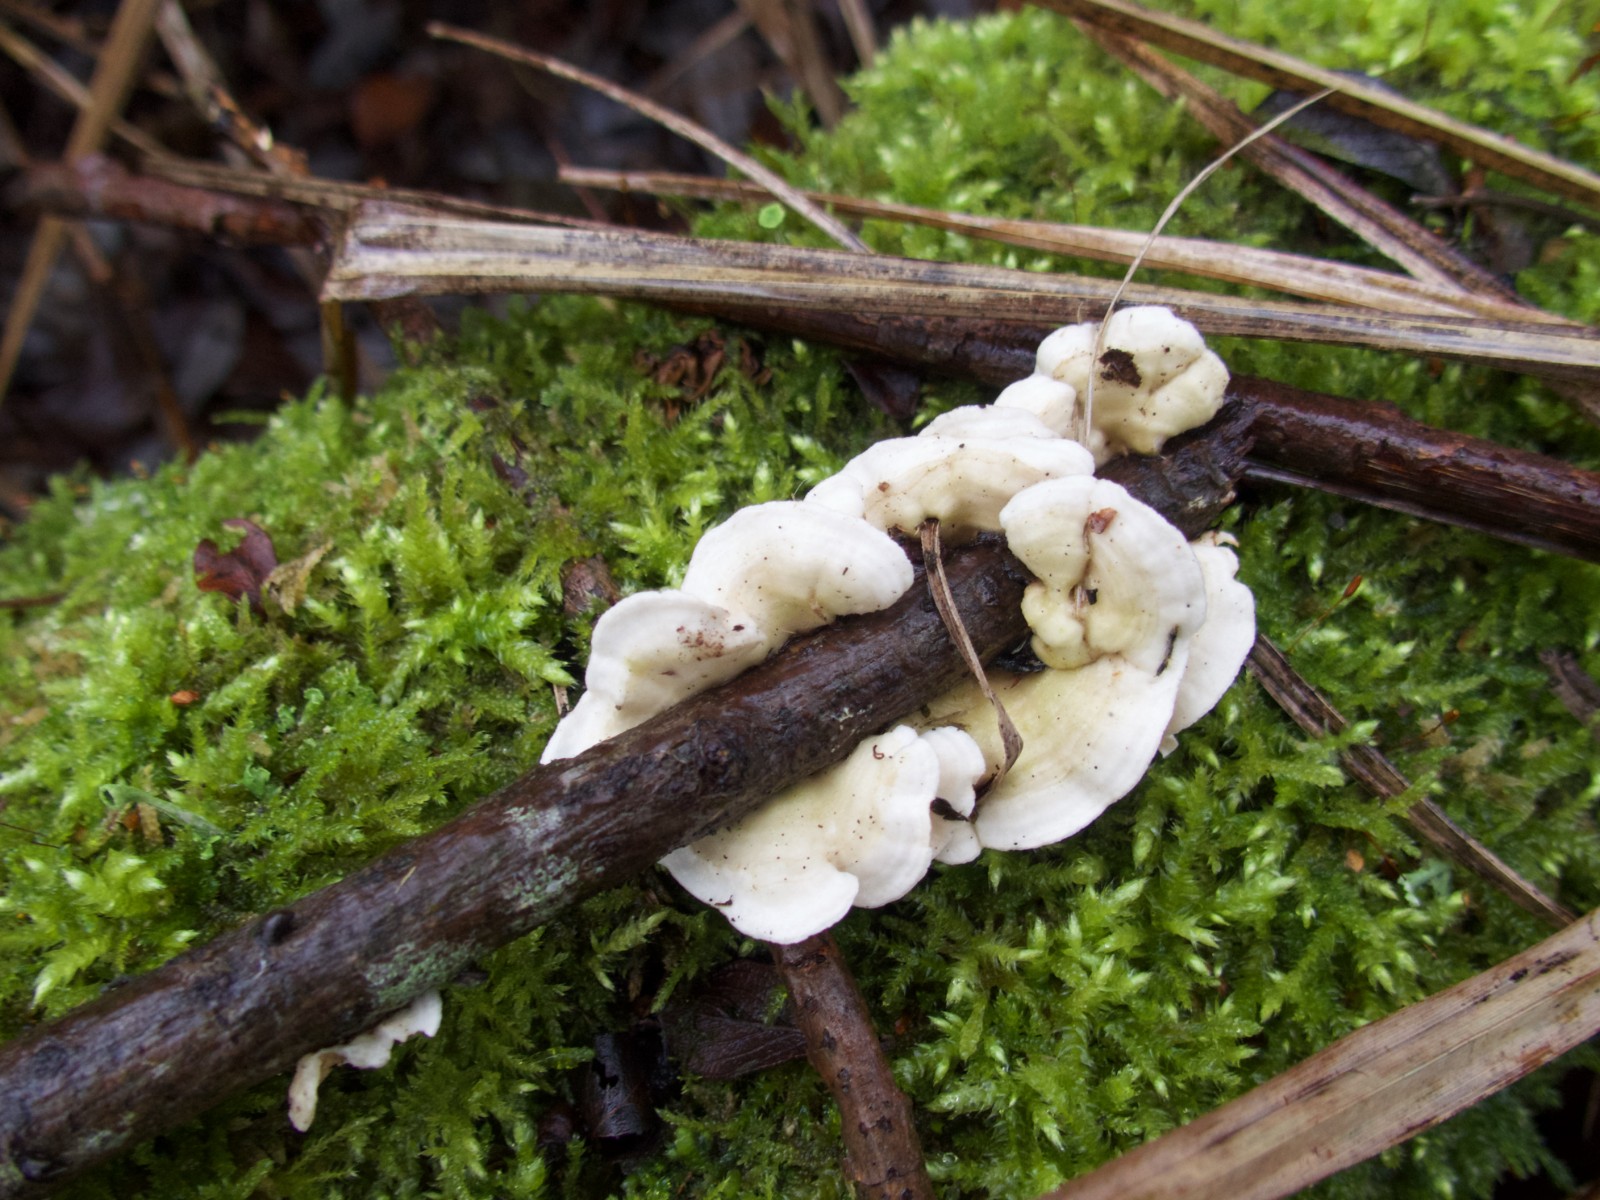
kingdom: Fungi
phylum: Basidiomycota
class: Agaricomycetes
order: Polyporales
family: Irpicaceae
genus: Byssomerulius
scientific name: Byssomerulius corium
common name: læder-åresvamp
